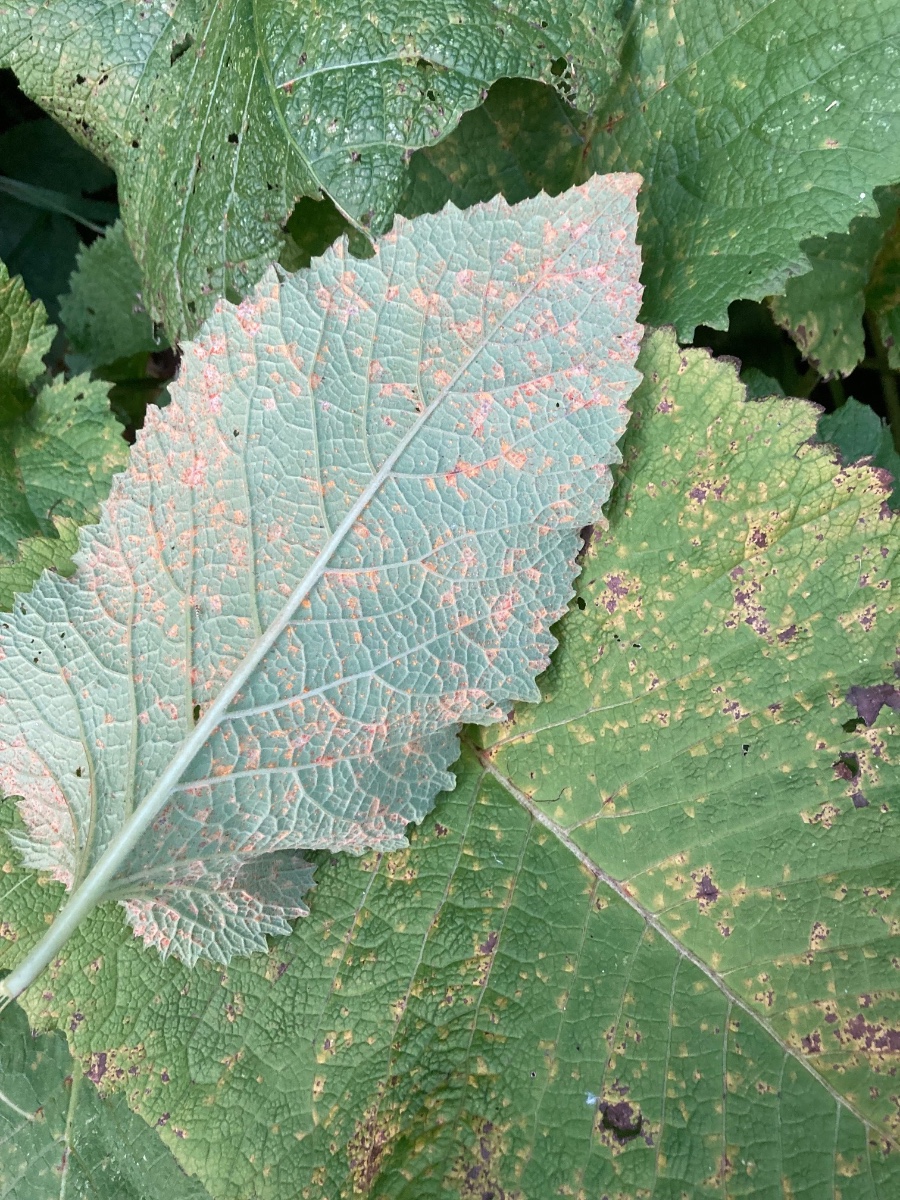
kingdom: Fungi
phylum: Basidiomycota
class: Pucciniomycetes
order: Pucciniales
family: Coleosporiaceae
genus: Coleosporium
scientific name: Coleosporium telekiae
